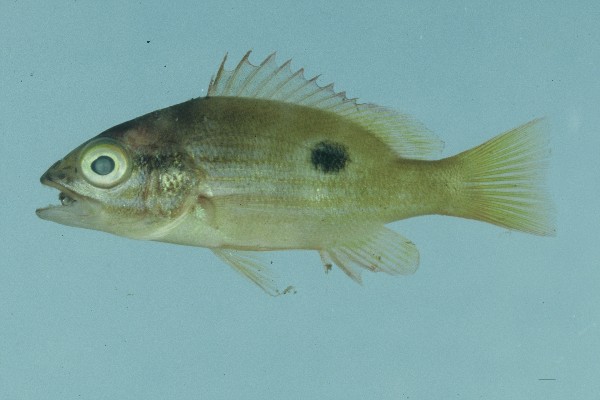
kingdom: Animalia
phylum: Chordata
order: Perciformes
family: Lutjanidae
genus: Lutjanus
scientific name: Lutjanus fulviflamma
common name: Blackspot snapper
